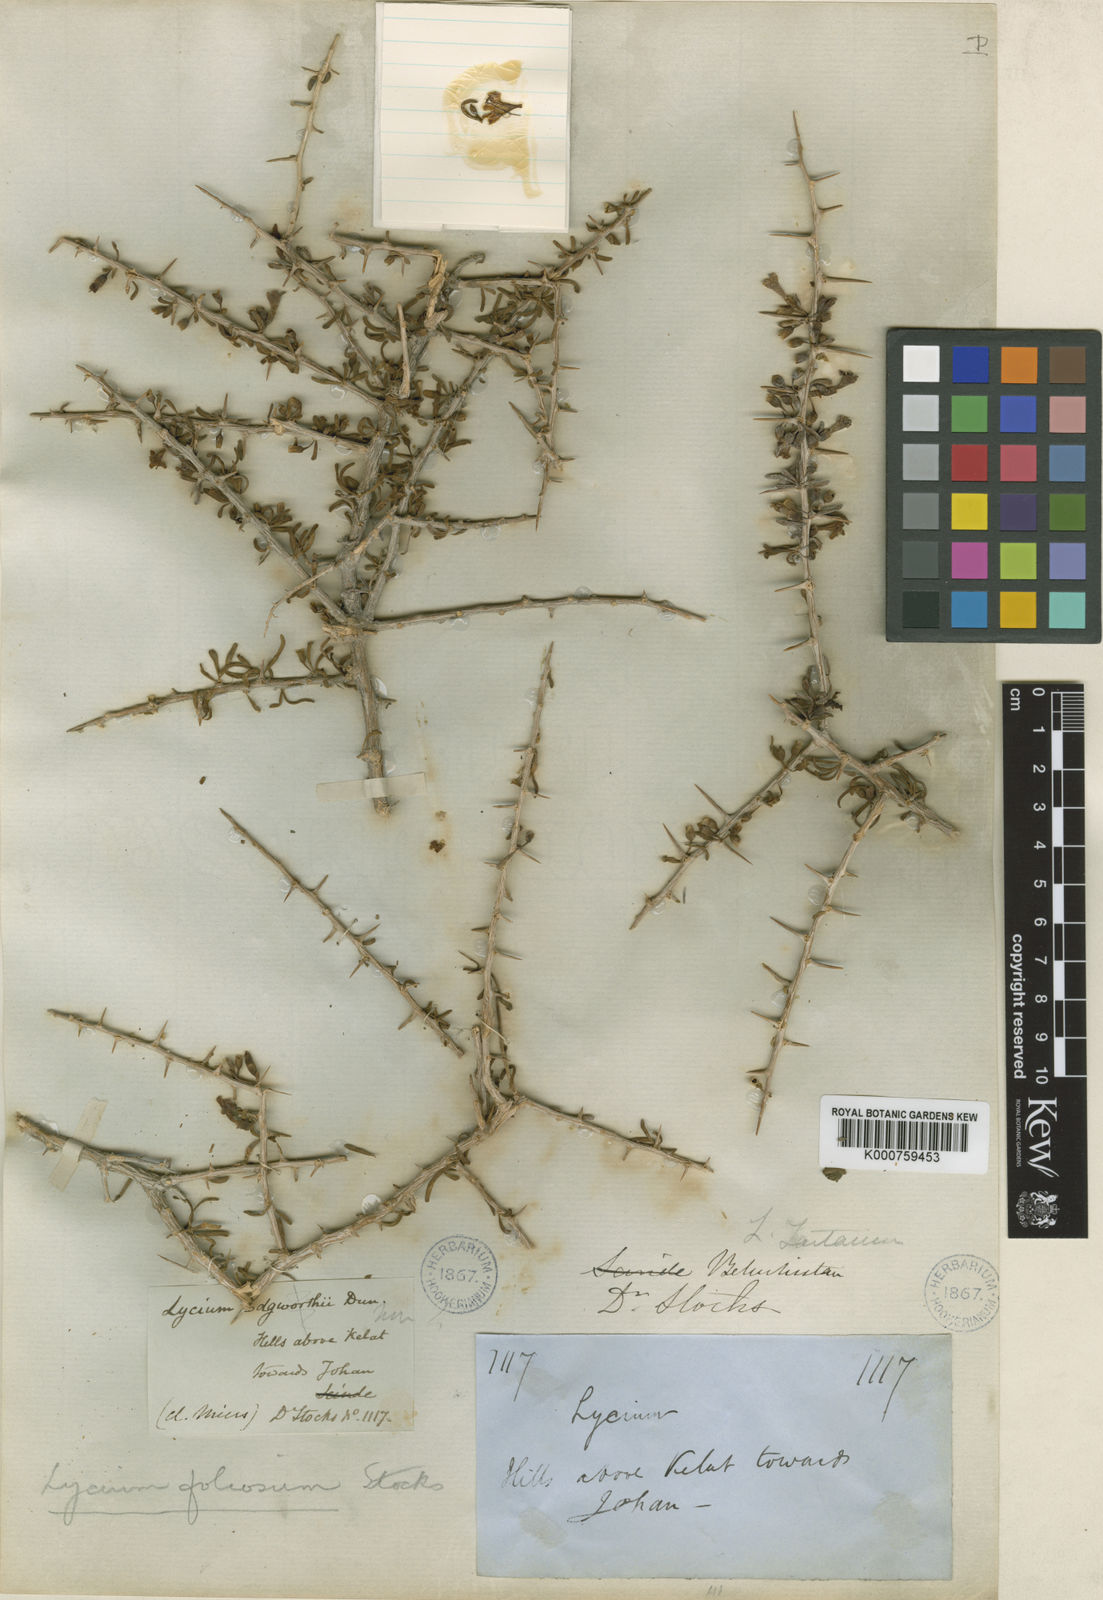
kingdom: Plantae
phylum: Tracheophyta
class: Magnoliopsida
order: Solanales
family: Solanaceae
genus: Lycium
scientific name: Lycium depressum
